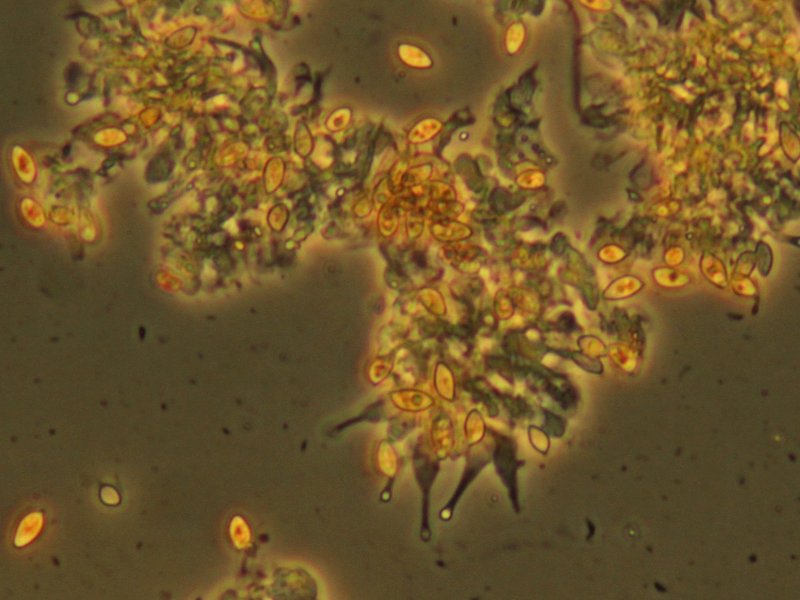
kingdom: Fungi
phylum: Basidiomycota
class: Agaricomycetes
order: Agaricales
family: Hymenogastraceae
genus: Galerina
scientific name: Galerina ampullaceocystis
